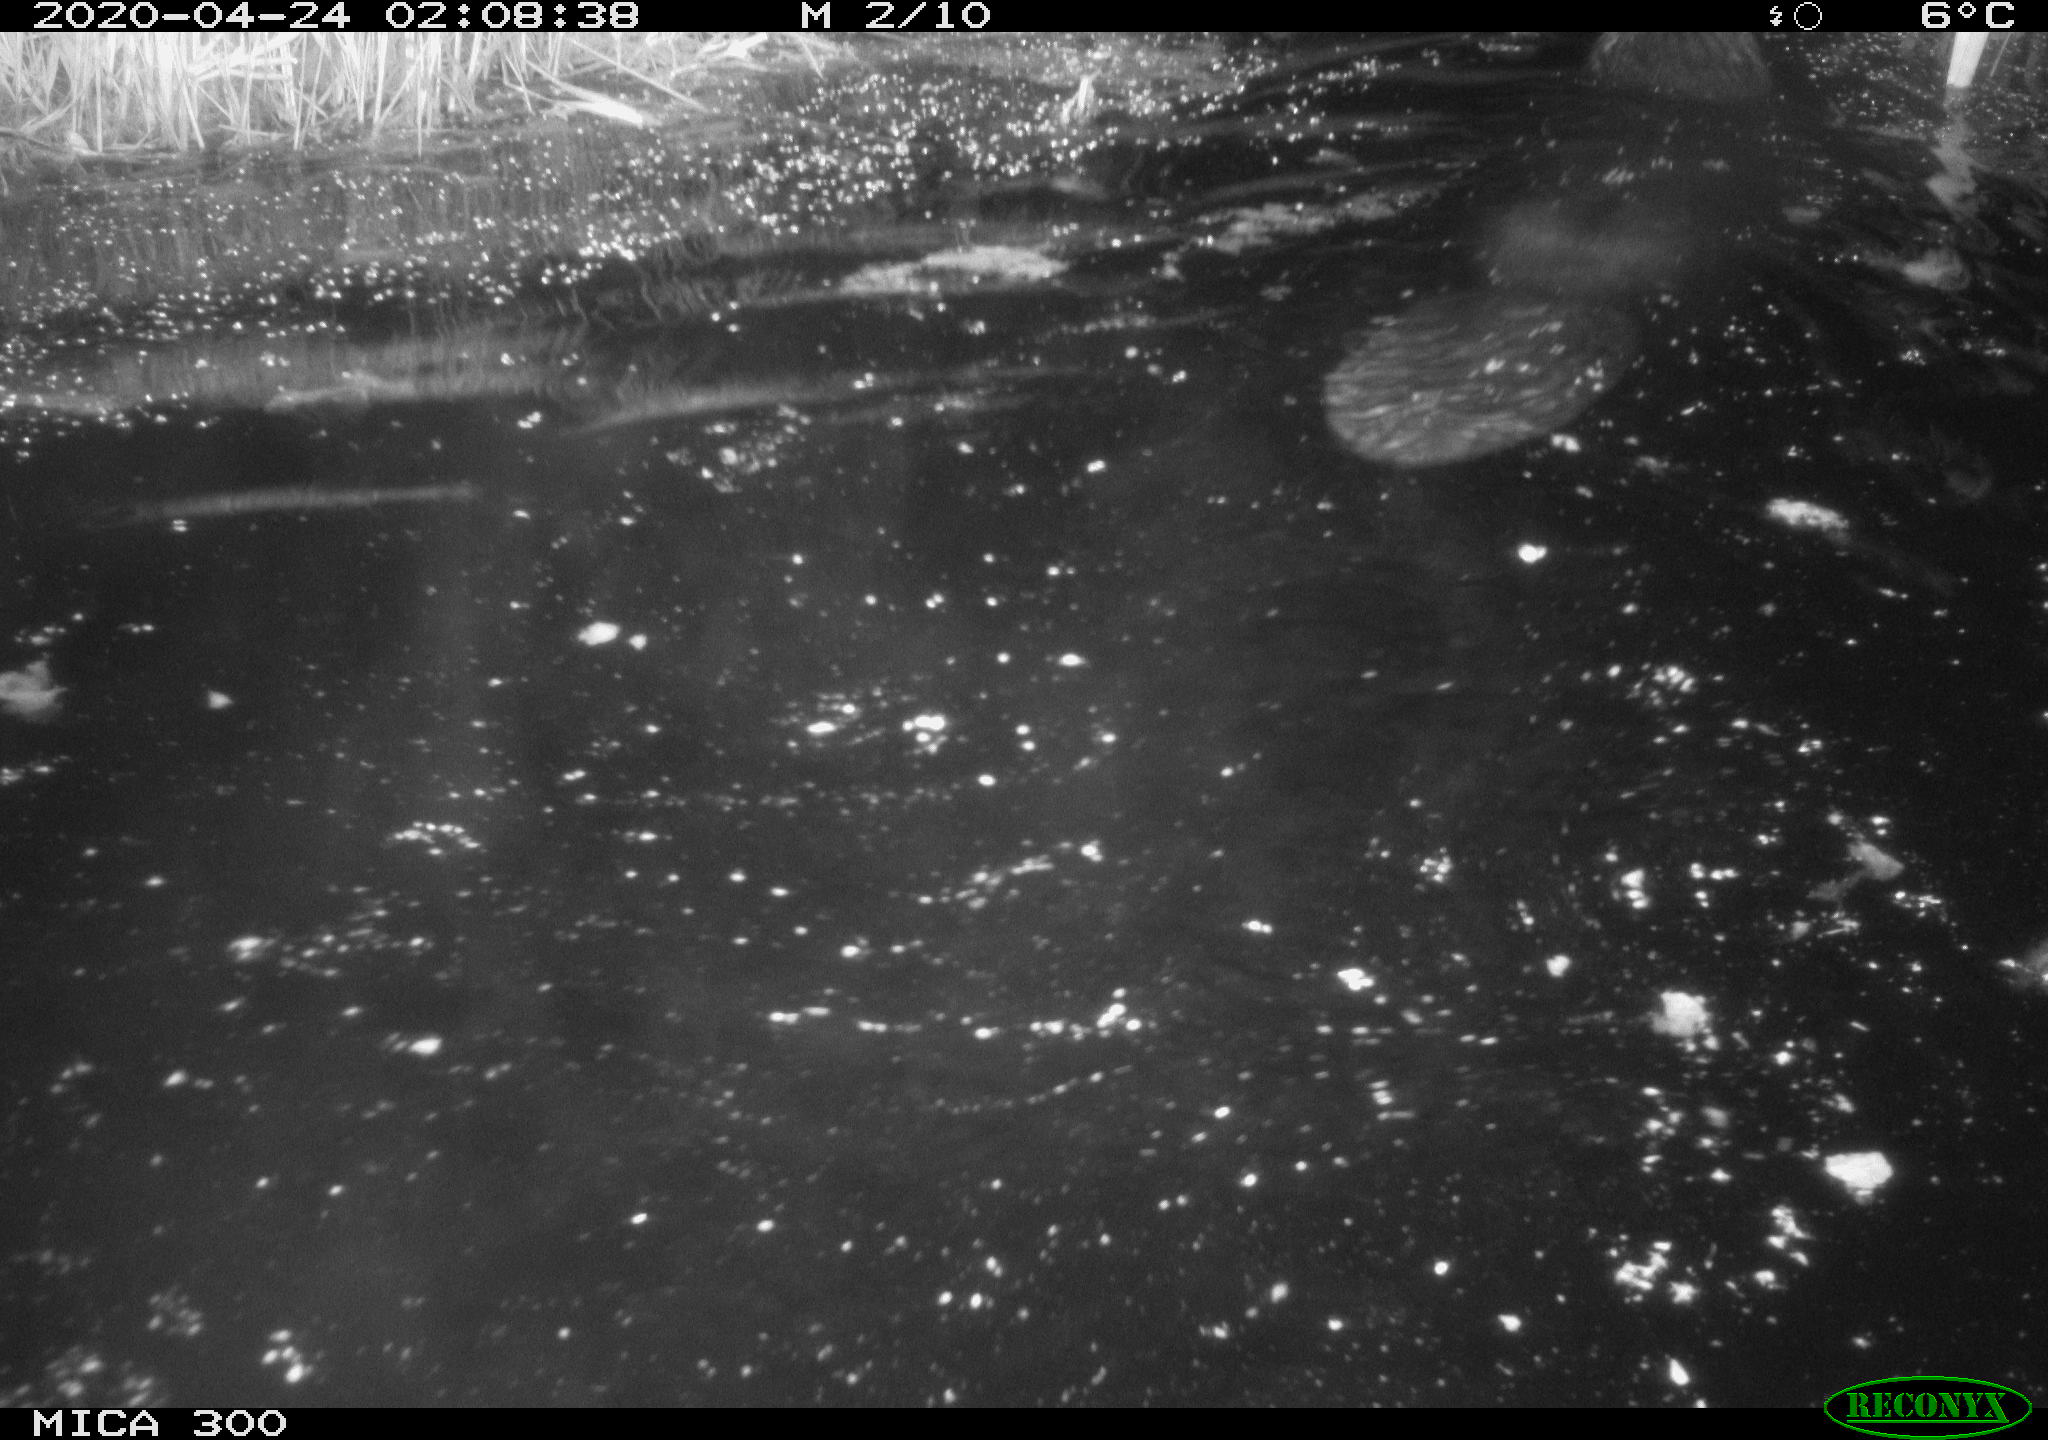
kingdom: Animalia
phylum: Chordata
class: Mammalia
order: Rodentia
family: Castoridae
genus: Castor
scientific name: Castor fiber
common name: Eurasian beaver
